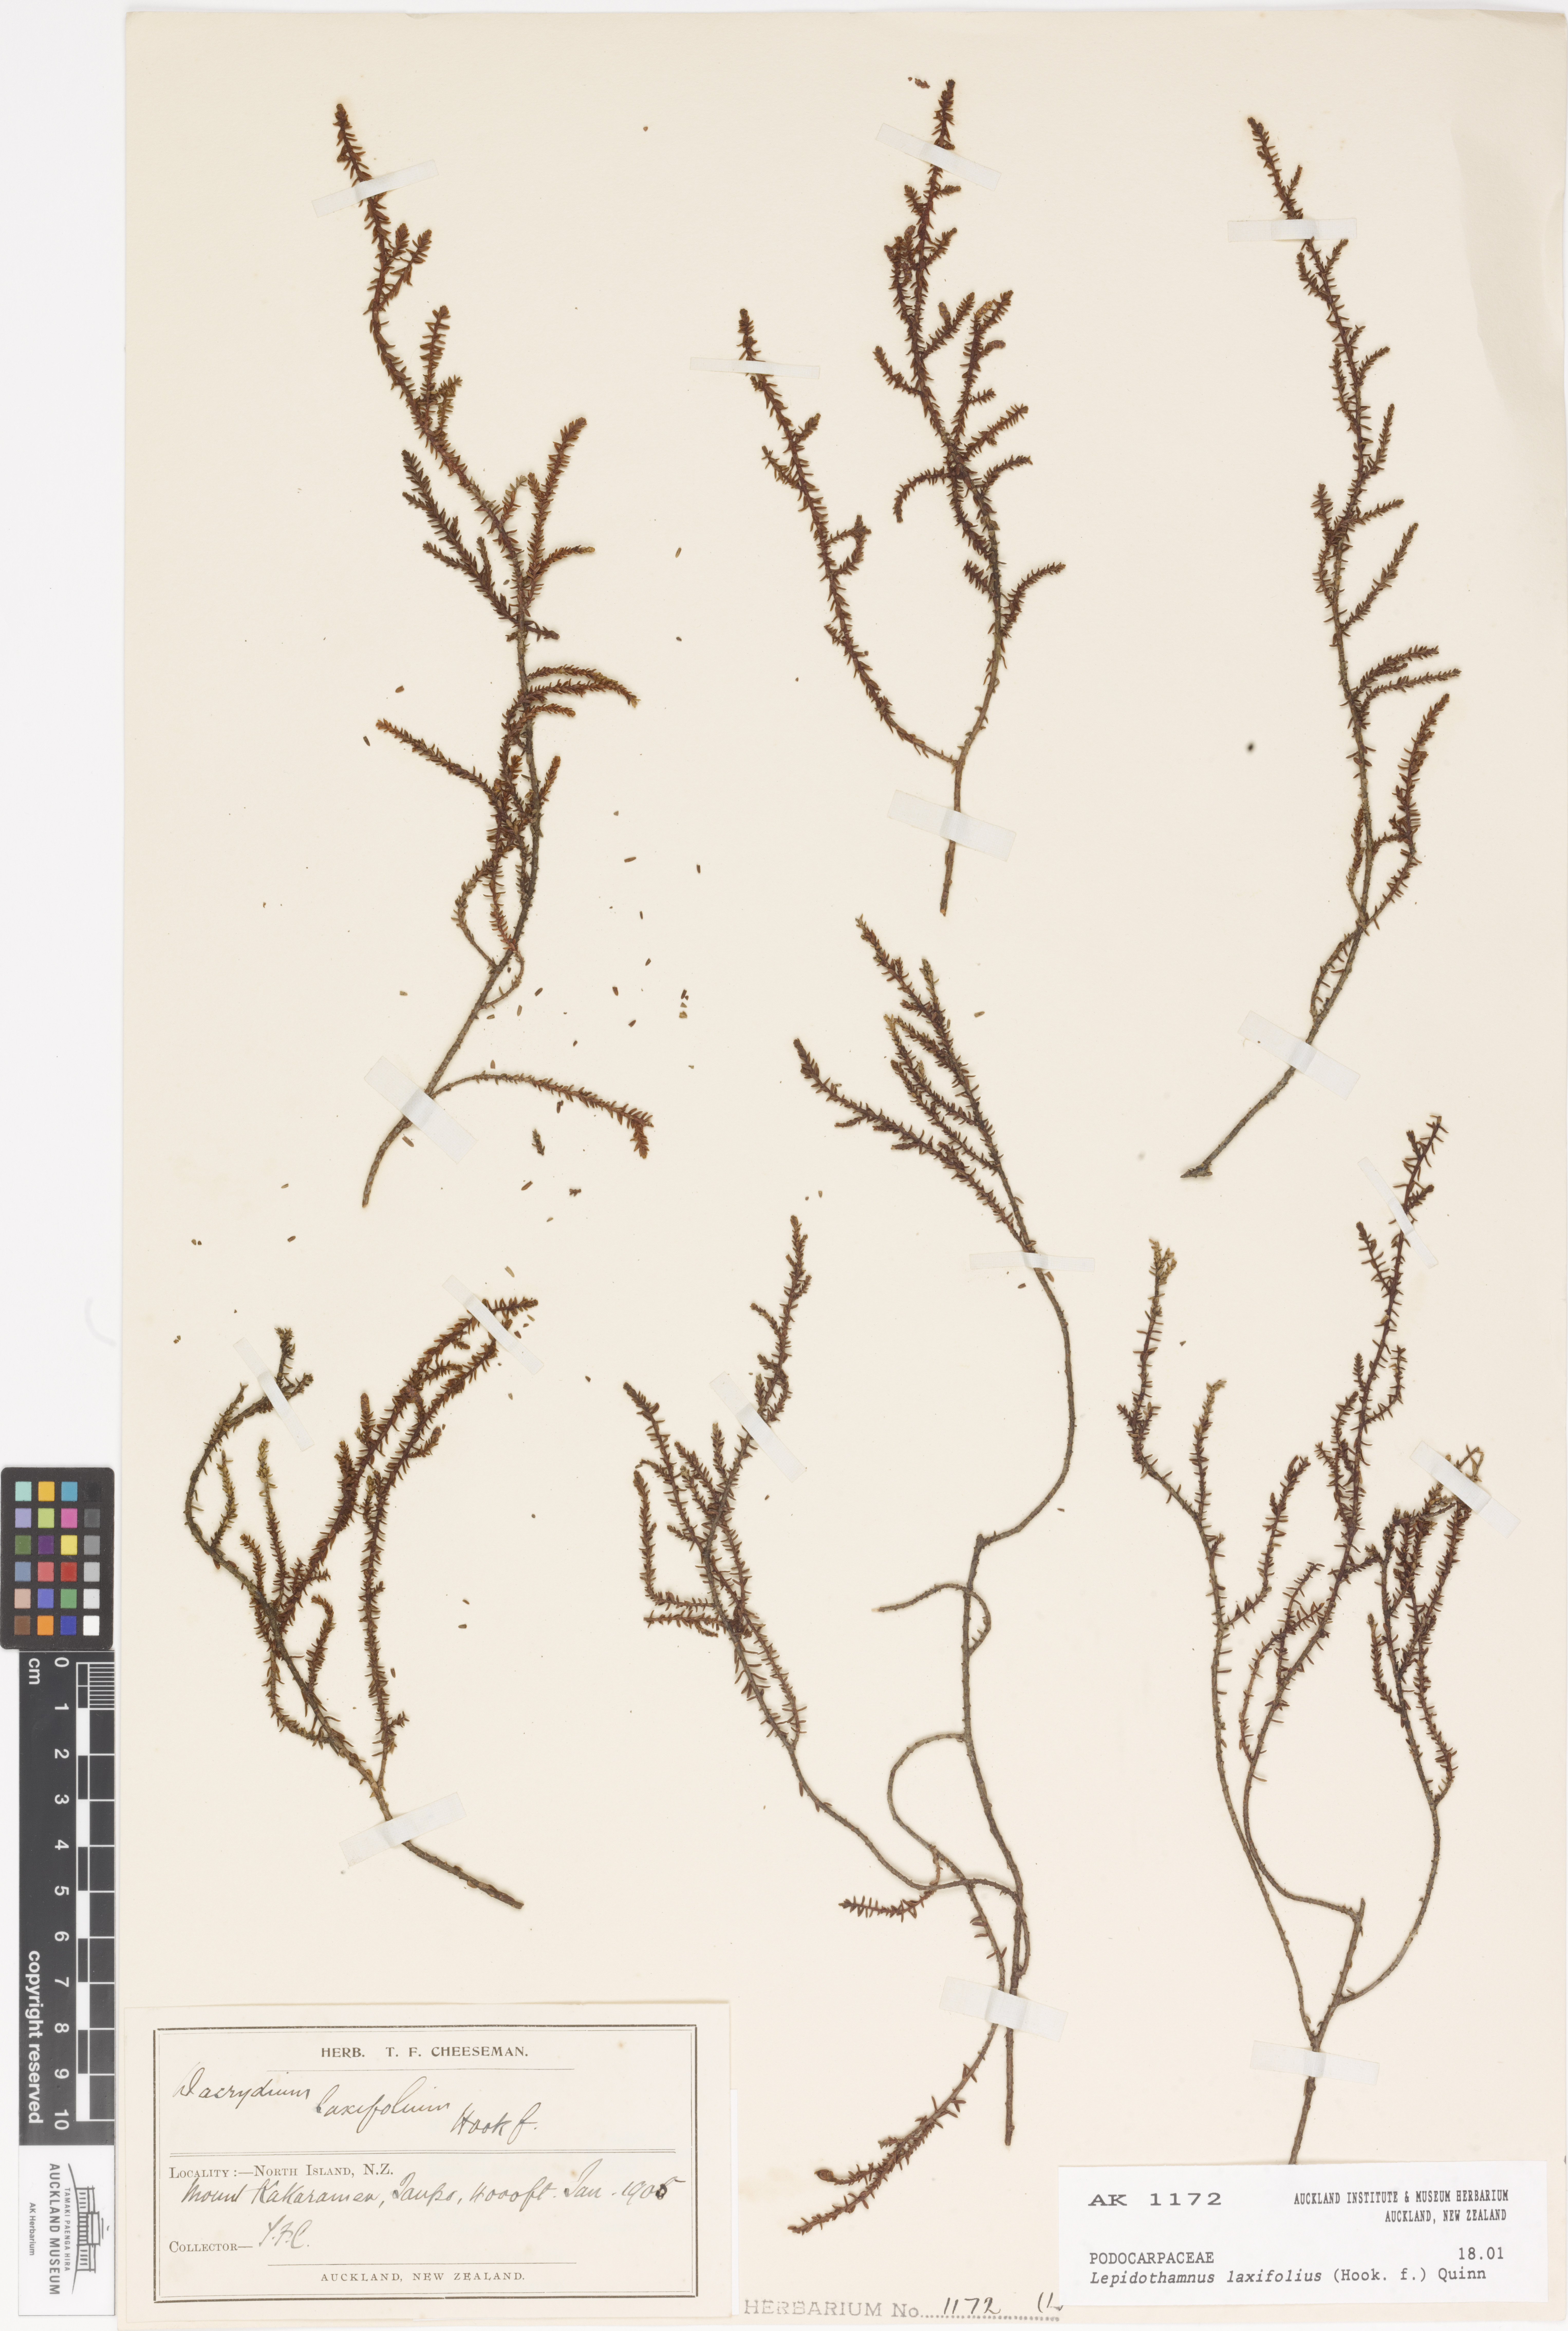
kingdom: Plantae
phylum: Tracheophyta
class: Pinopsida
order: Pinales
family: Podocarpaceae
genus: Lepidothamnus
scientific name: Lepidothamnus laxifolius
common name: Pygmy pine
